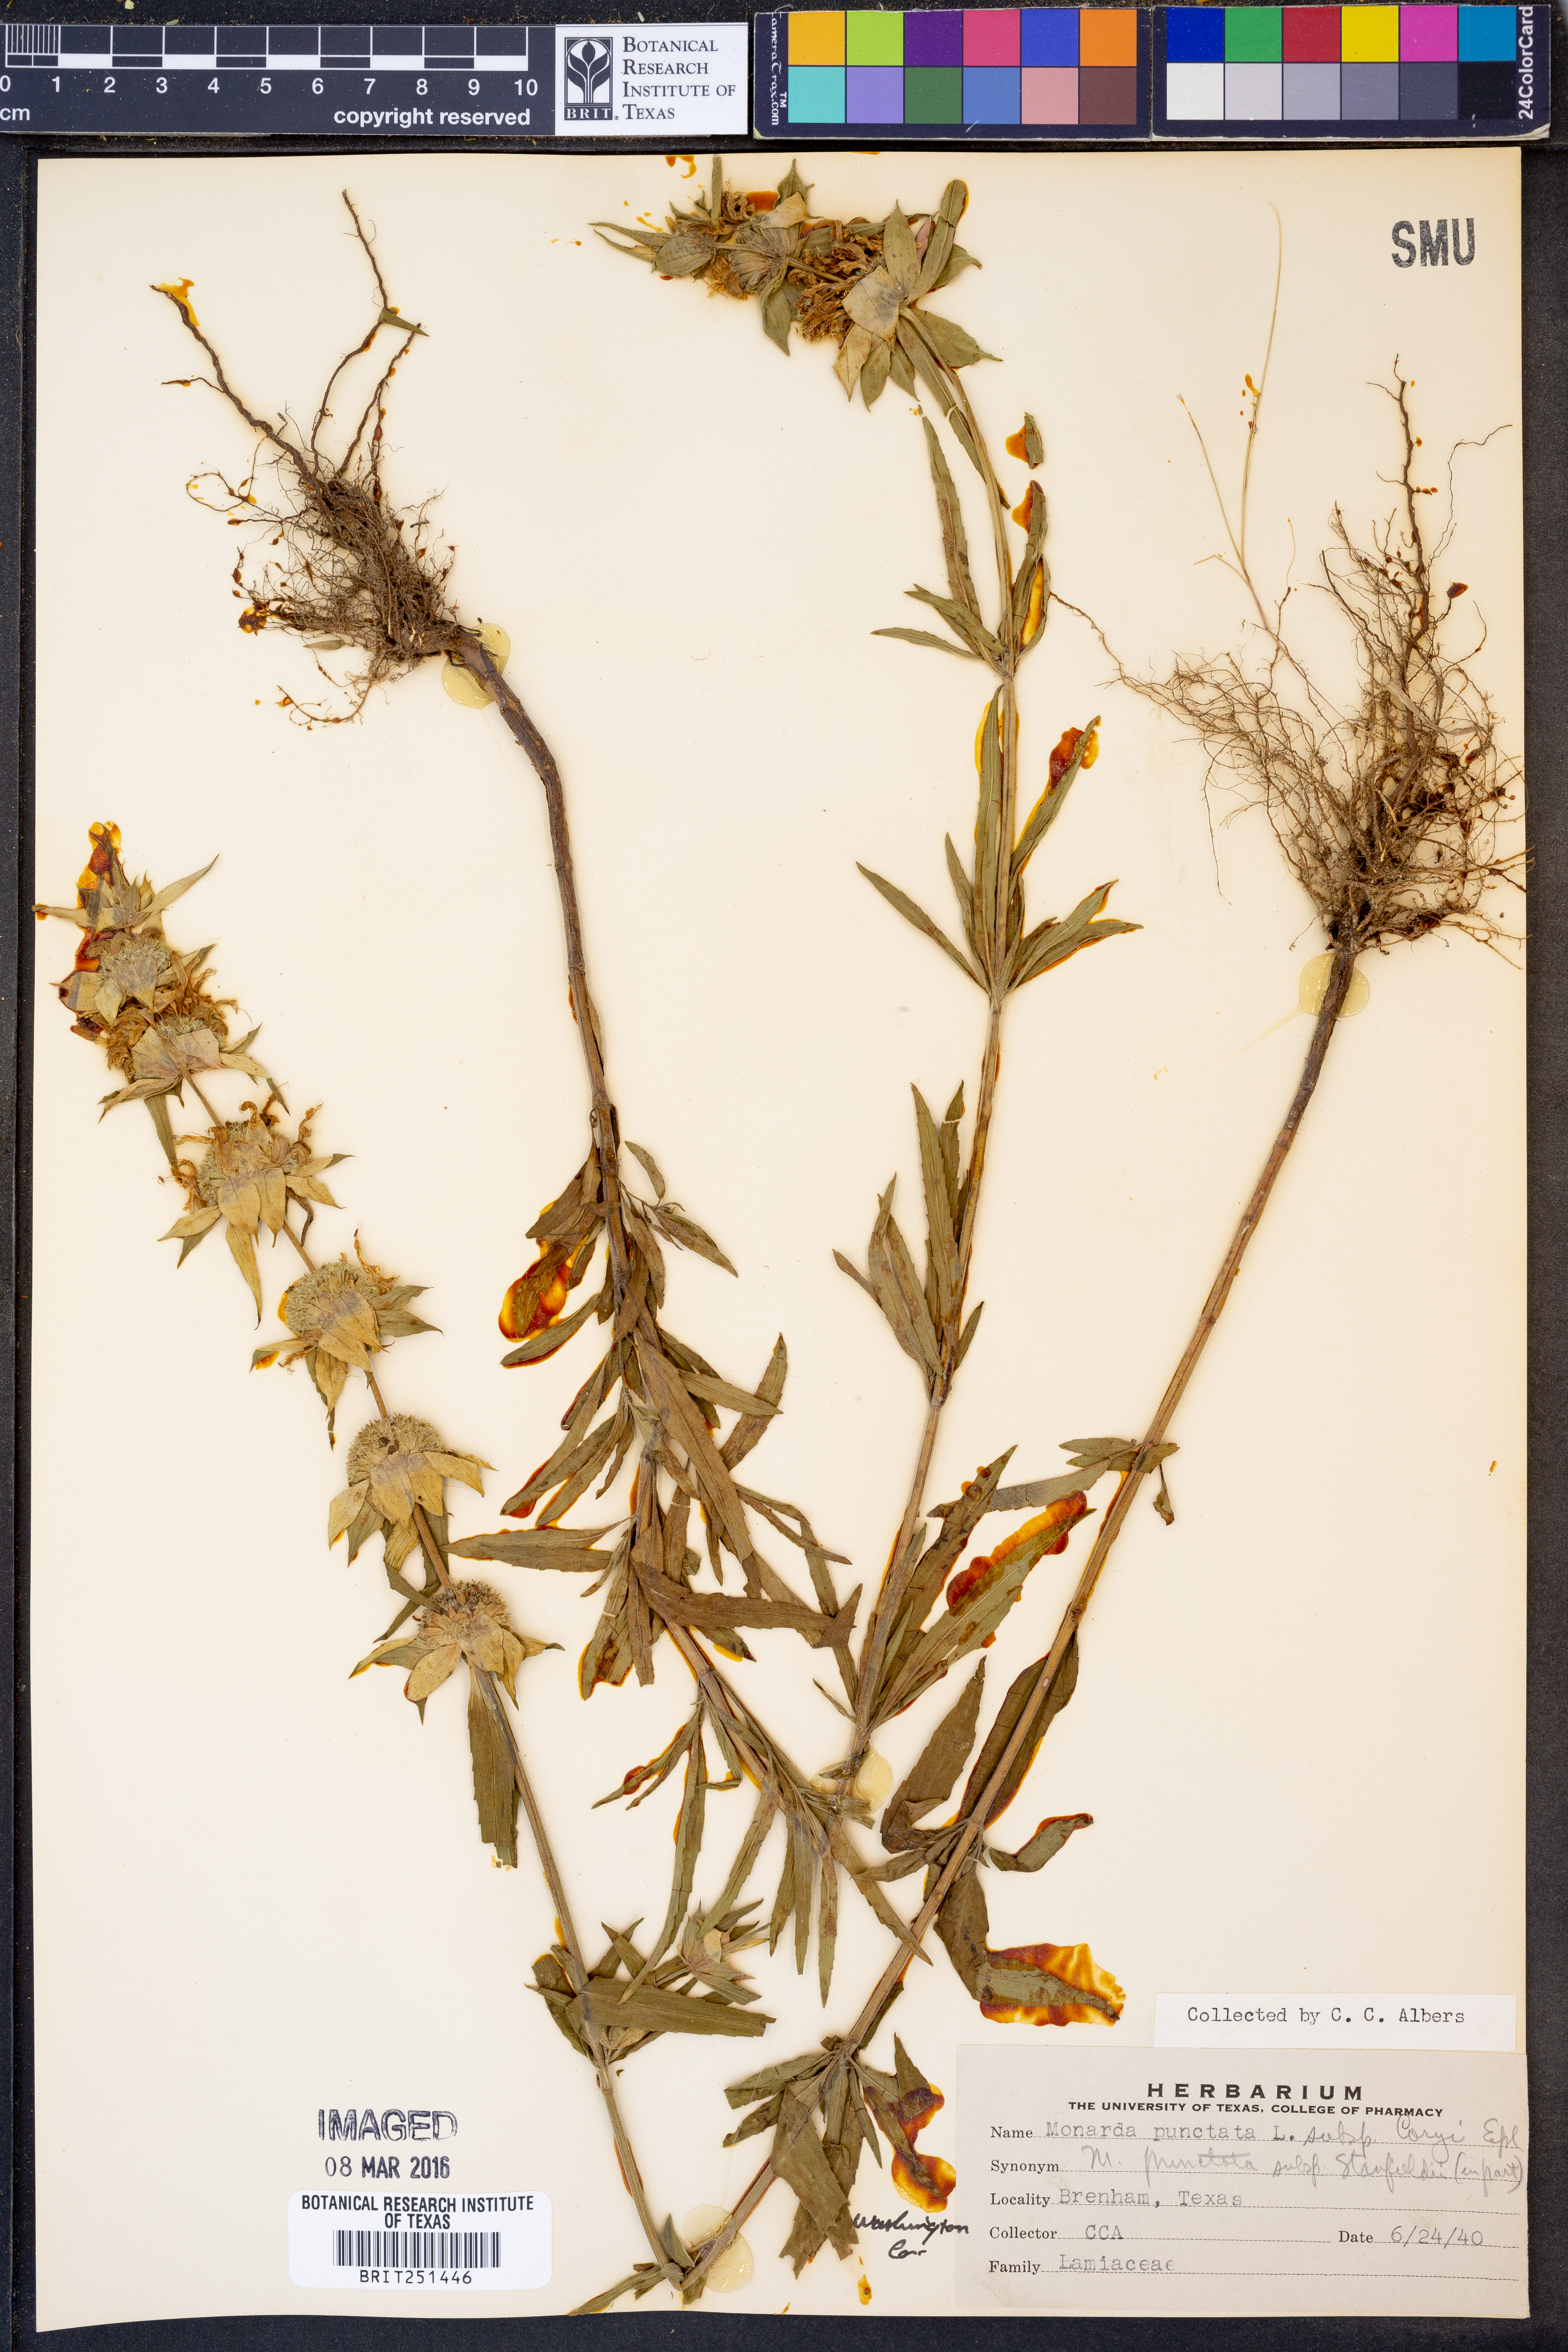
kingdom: Plantae
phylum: Tracheophyta
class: Magnoliopsida
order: Lamiales
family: Lamiaceae
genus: Monarda
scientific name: Monarda punctata
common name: Dotted monarda
